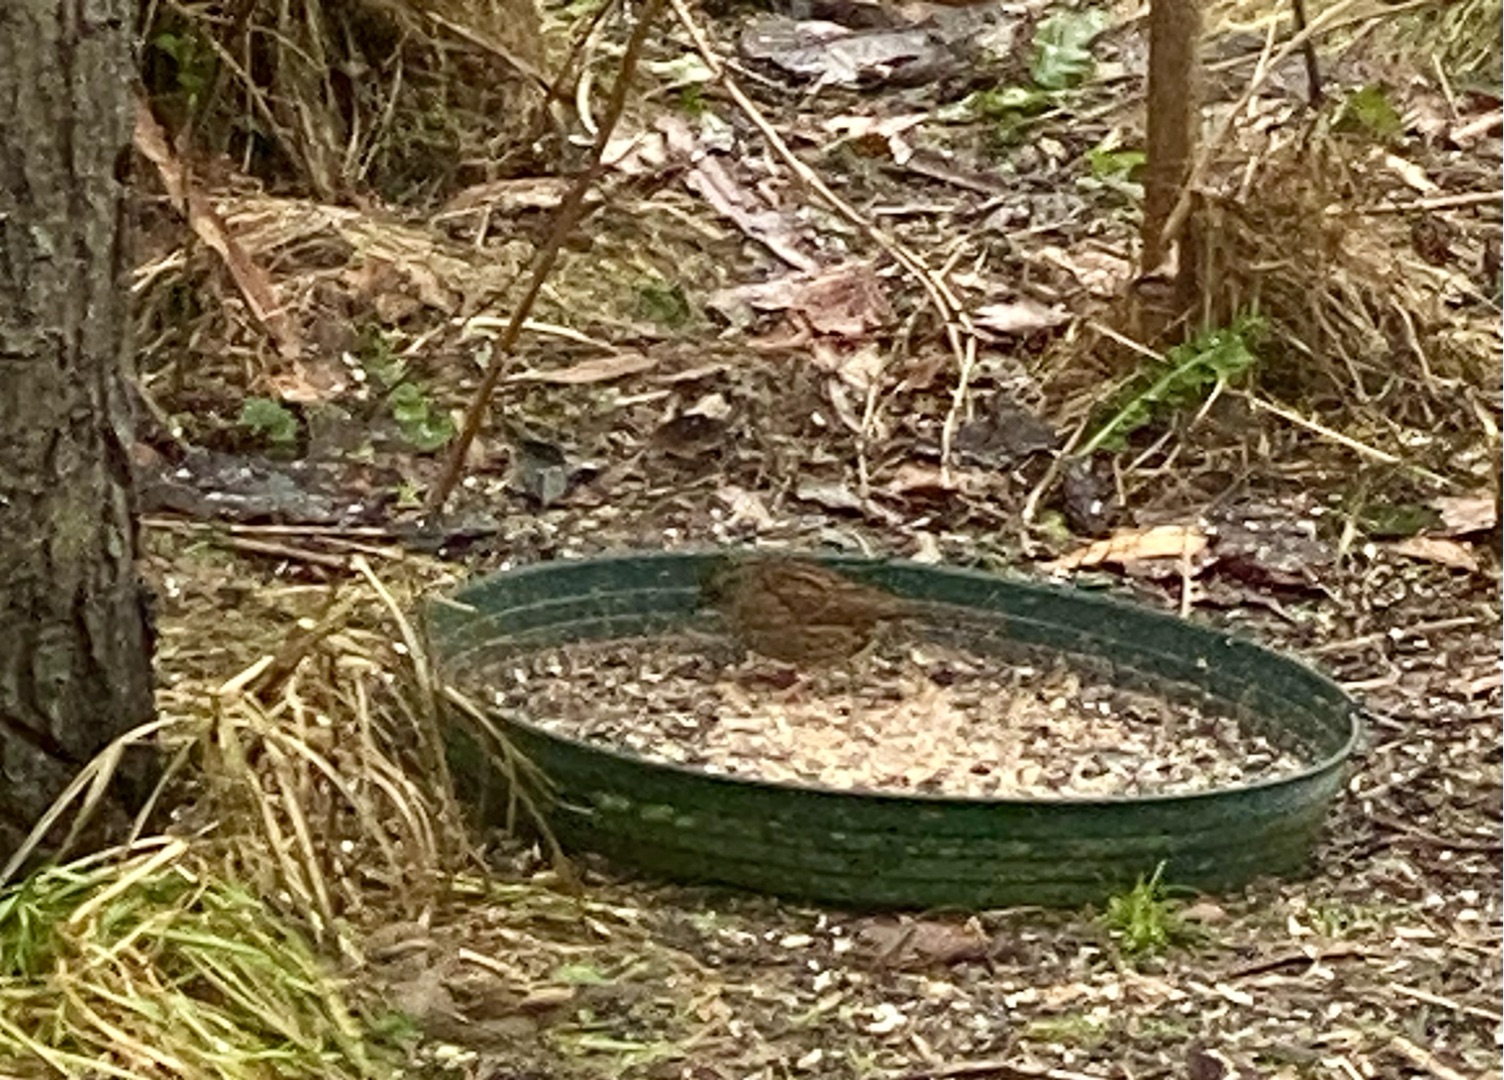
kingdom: Animalia
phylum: Chordata
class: Aves
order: Passeriformes
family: Prunellidae
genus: Prunella
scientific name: Prunella modularis
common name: Jernspurv
